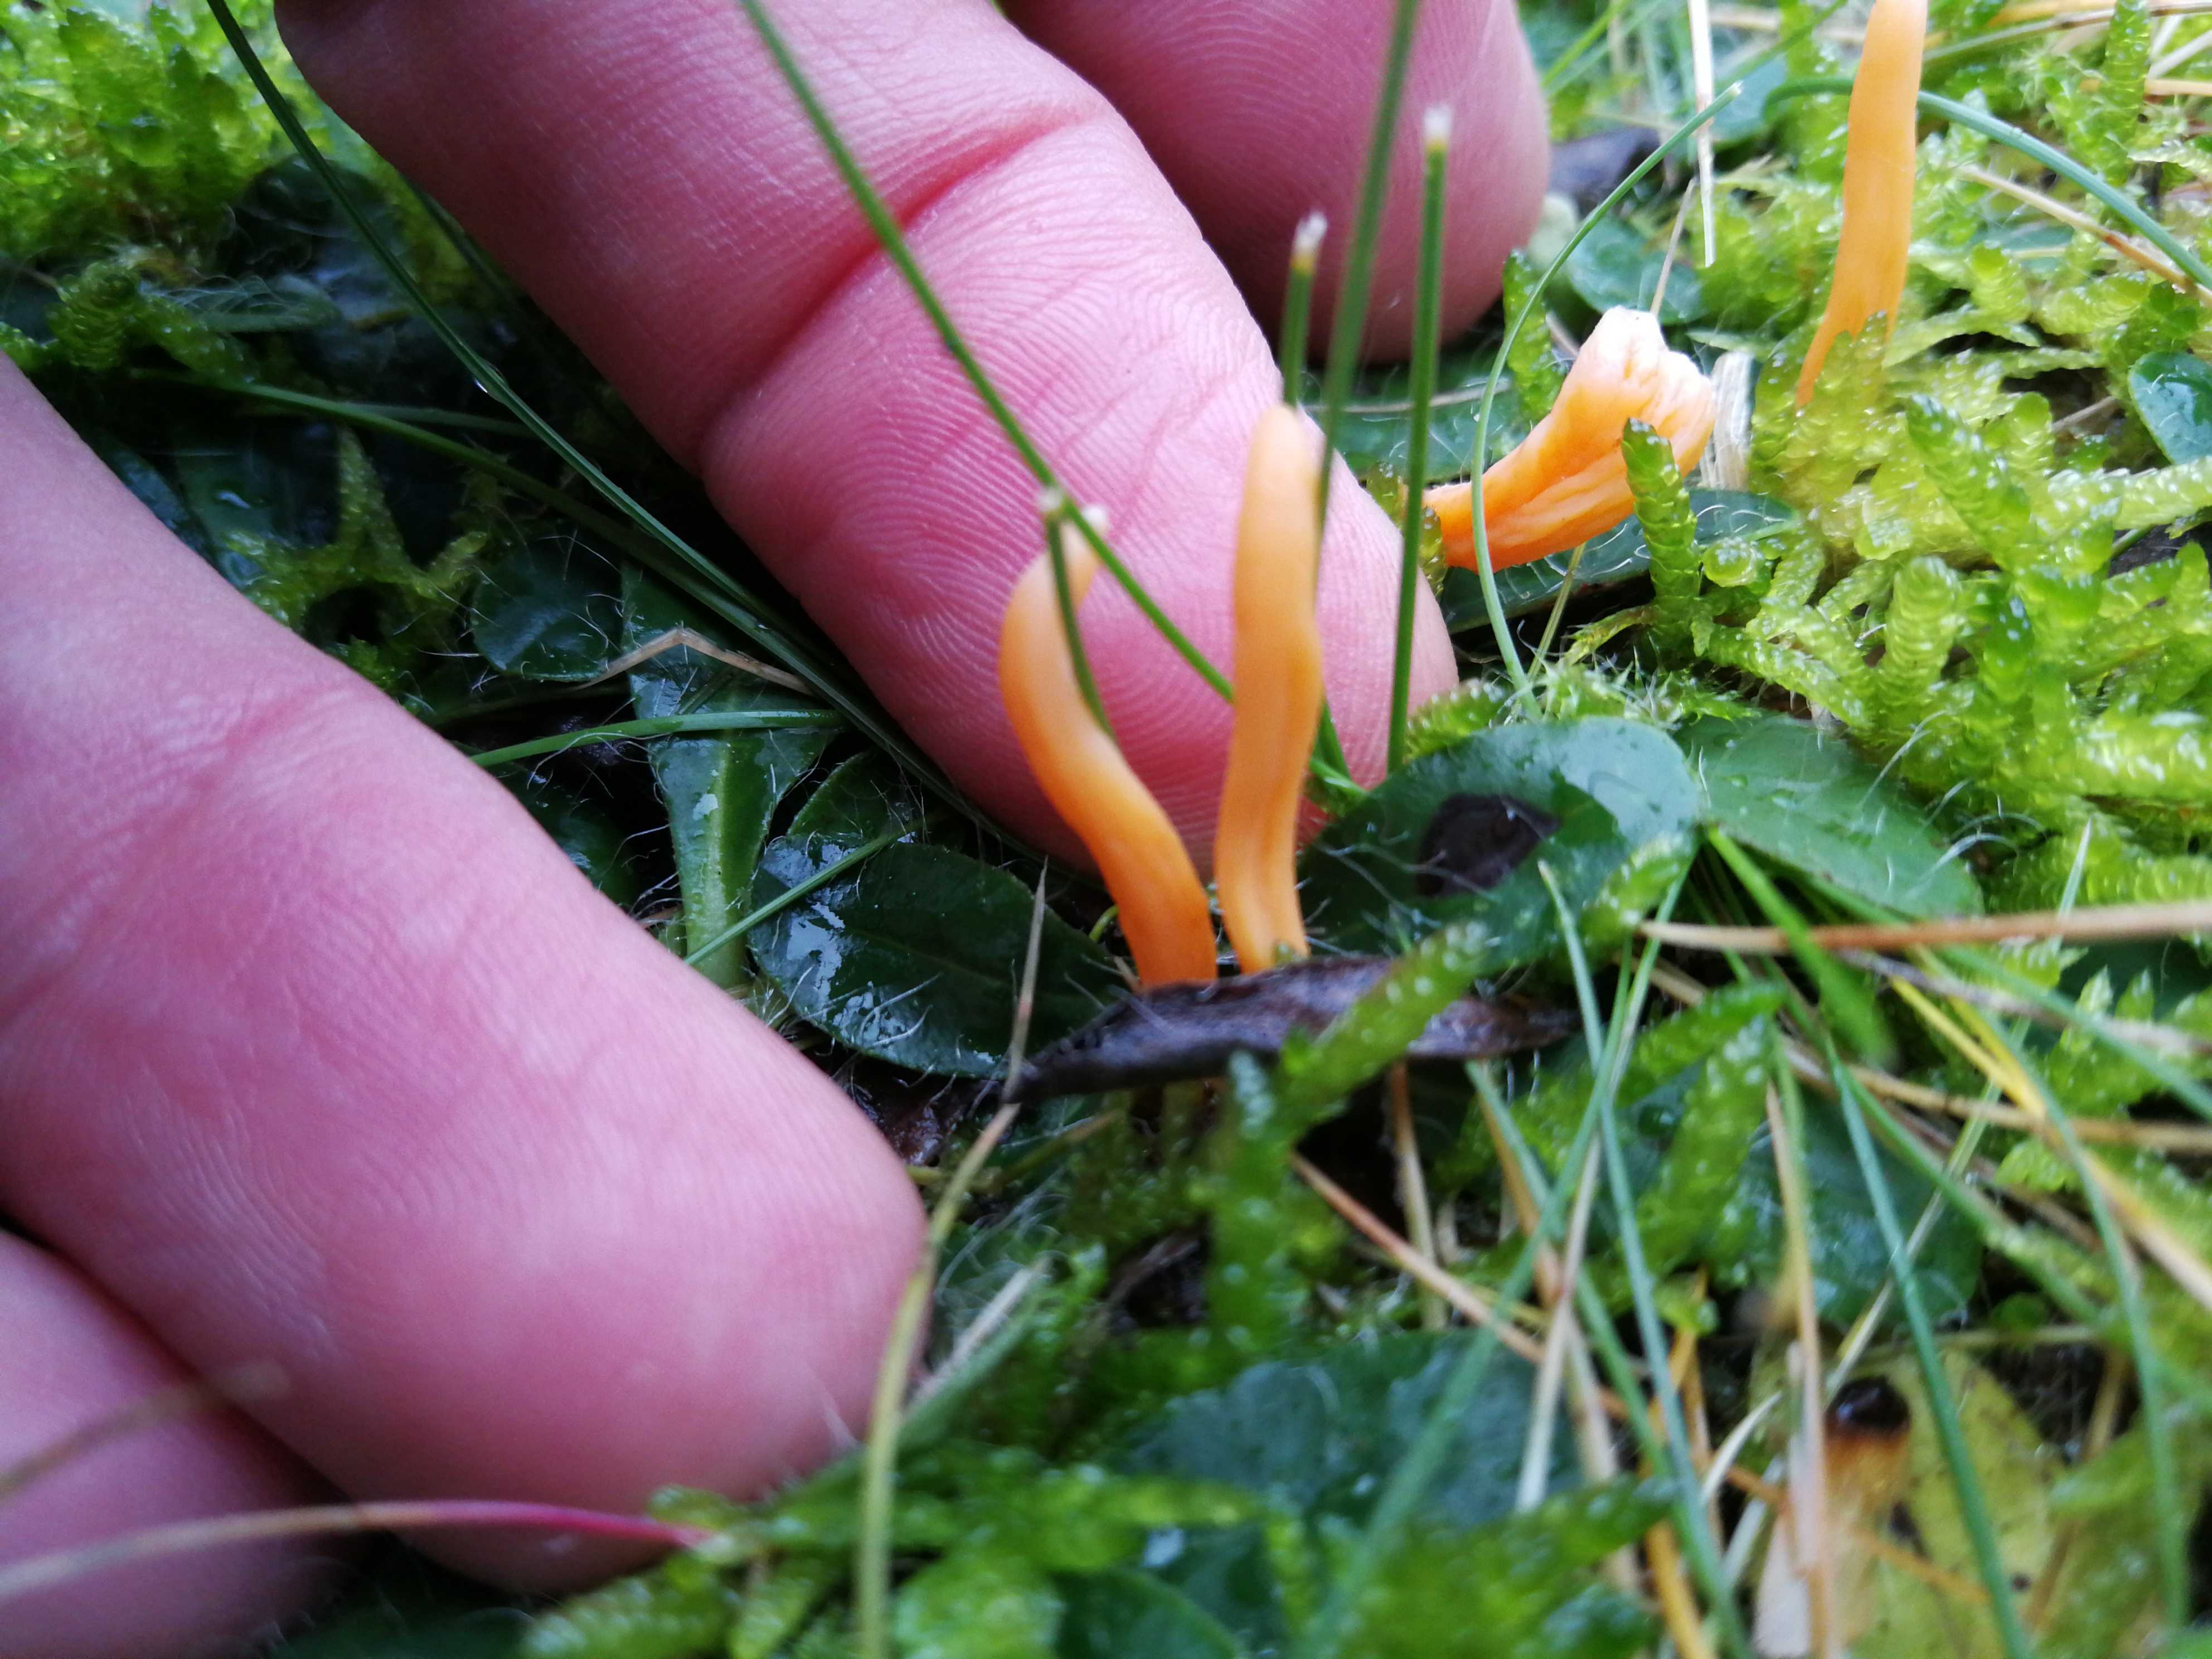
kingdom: Fungi
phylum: Basidiomycota
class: Agaricomycetes
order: Agaricales
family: Clavariaceae
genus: Clavulinopsis
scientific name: Clavulinopsis
